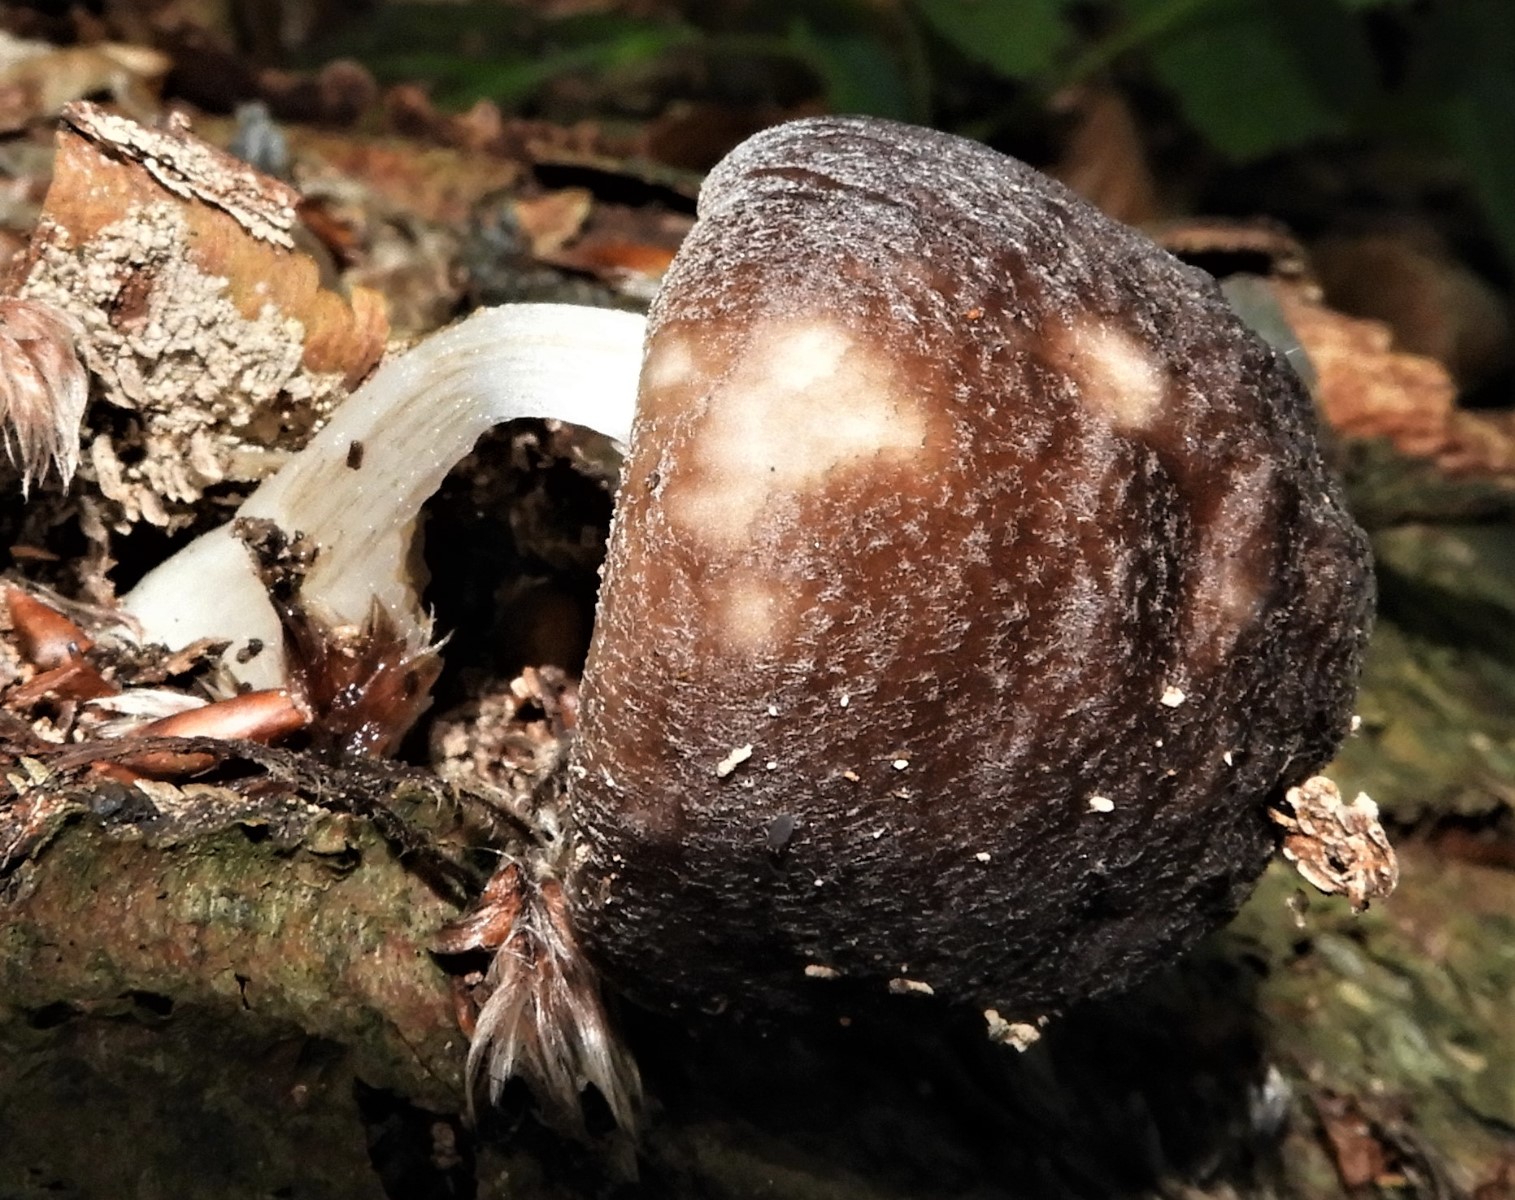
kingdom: Fungi
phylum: Basidiomycota
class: Agaricomycetes
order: Agaricales
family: Pluteaceae
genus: Pluteus
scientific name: Pluteus
